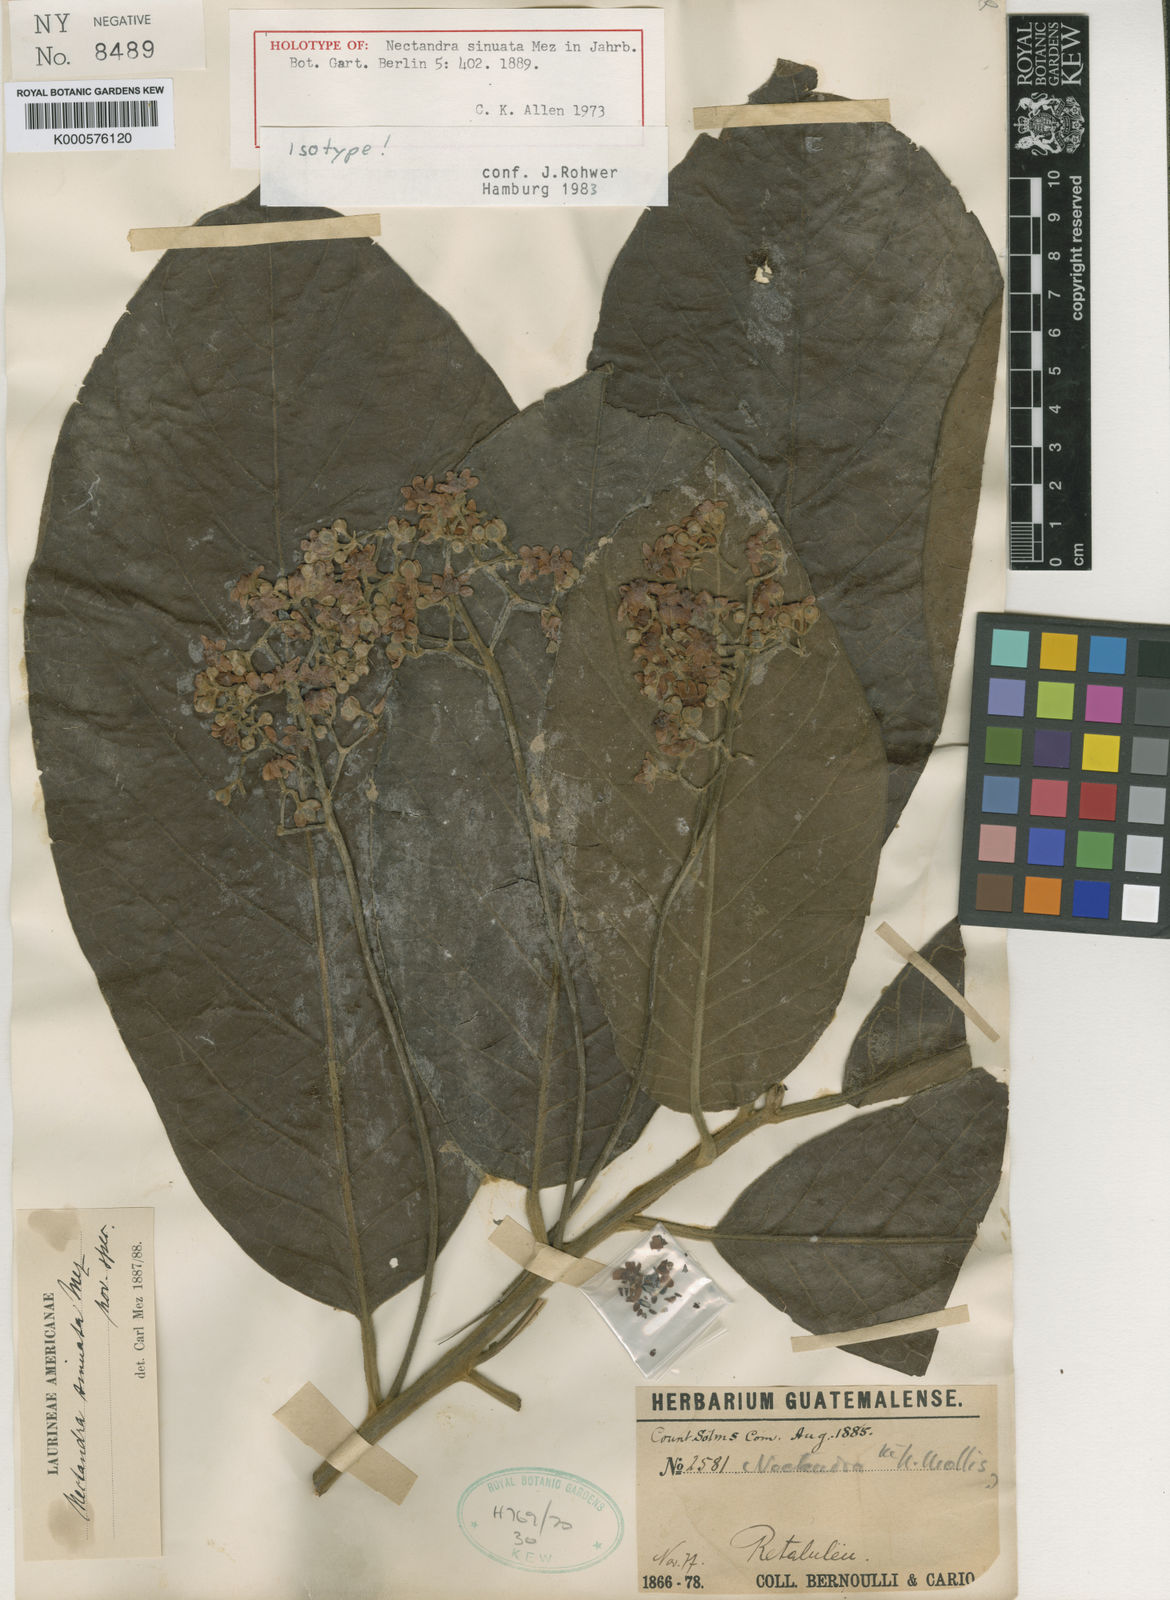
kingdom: Plantae
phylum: Tracheophyta
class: Magnoliopsida
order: Laurales
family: Lauraceae
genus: Ocotea
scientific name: Ocotea sinuata
